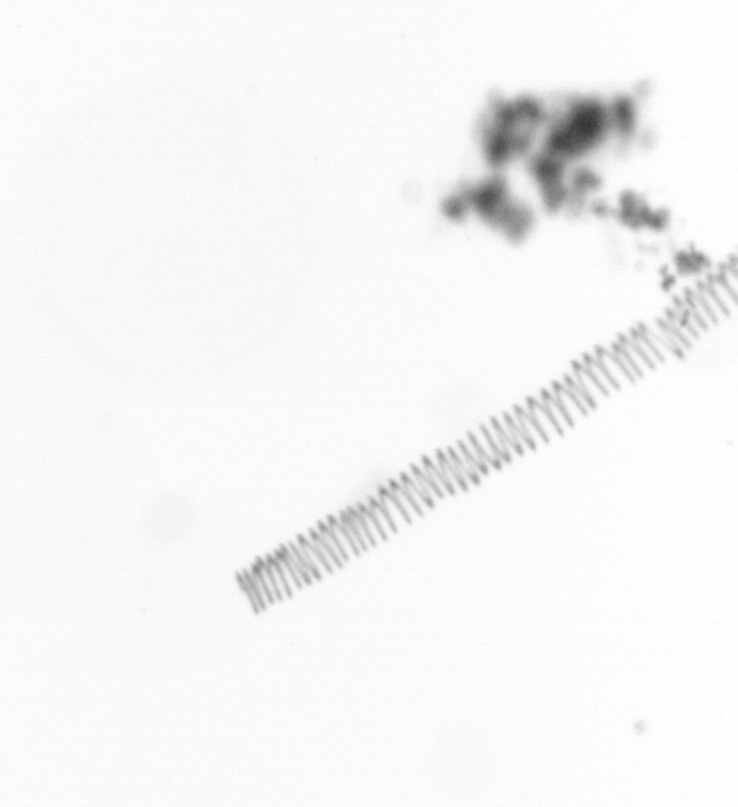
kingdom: Chromista
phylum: Ochrophyta
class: Bacillariophyceae
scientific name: Bacillariophyceae
